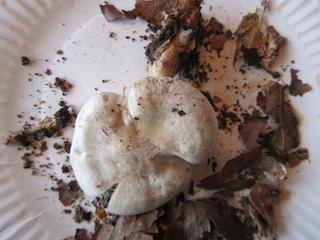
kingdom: Fungi
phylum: Basidiomycota
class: Agaricomycetes
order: Agaricales
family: Tricholomataceae
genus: Clitocybe
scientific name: Clitocybe phyllophila
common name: løv-tragthat
